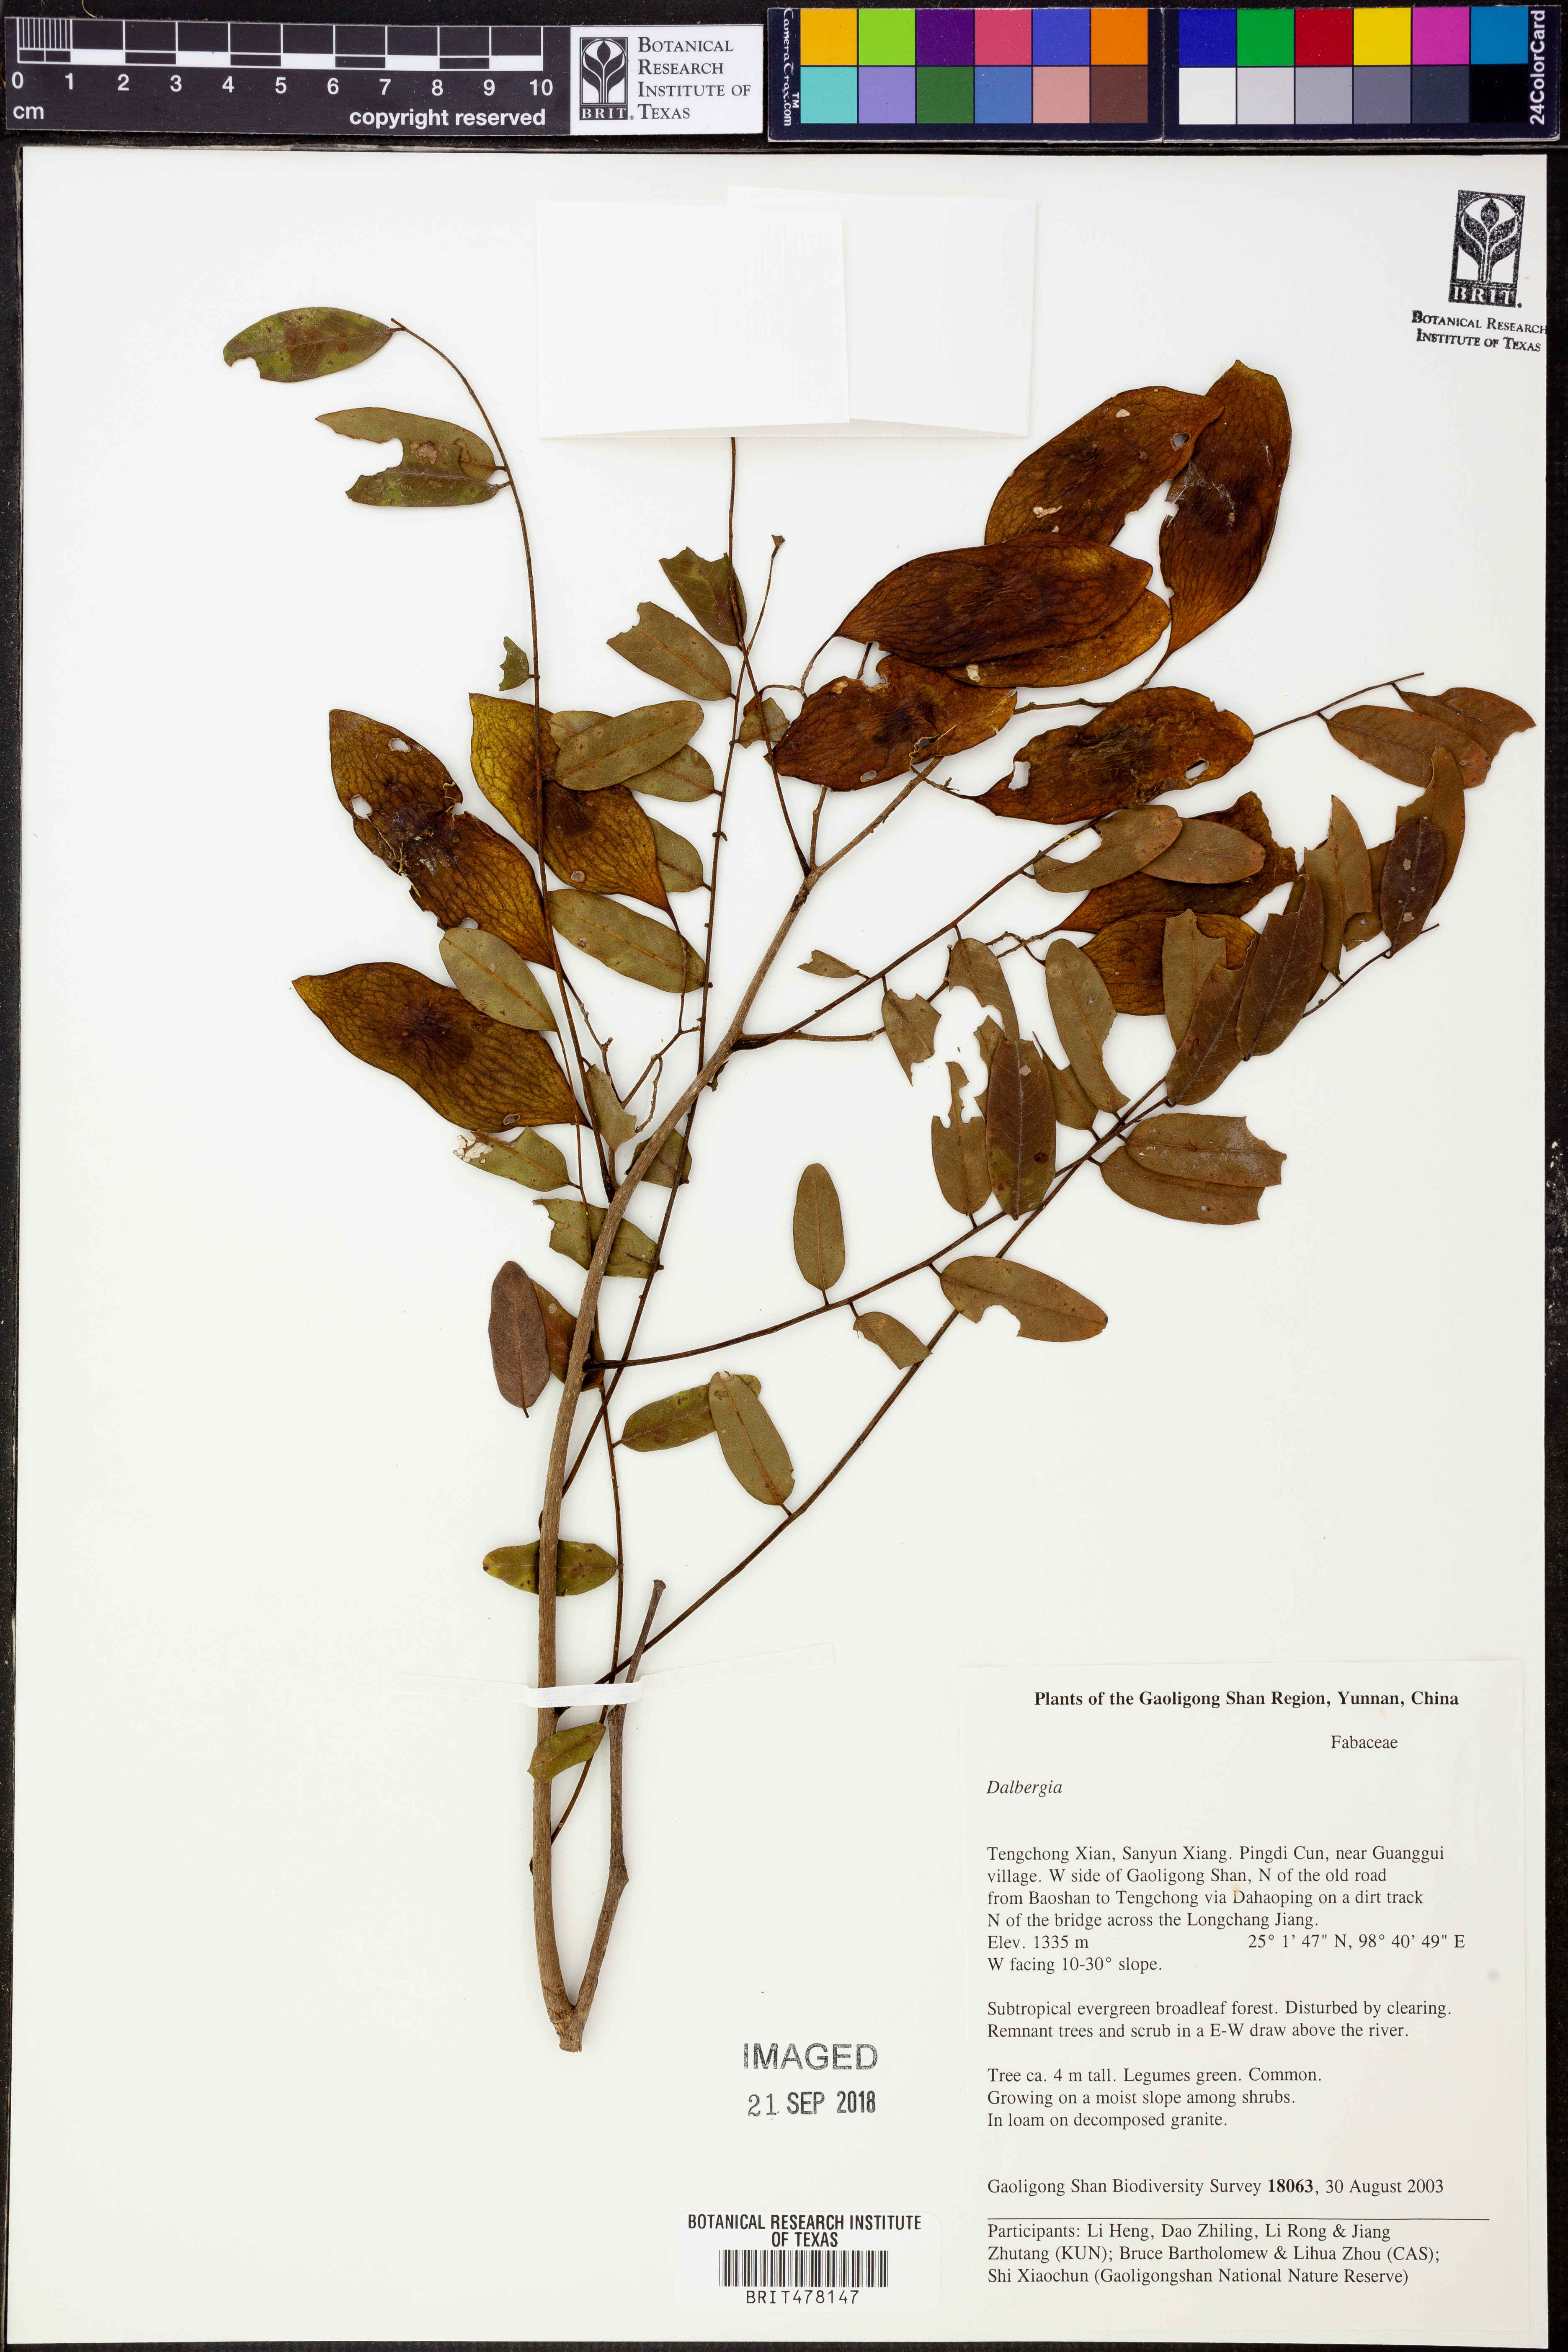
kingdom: Plantae
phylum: Tracheophyta
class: Magnoliopsida
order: Fabales
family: Fabaceae
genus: Dalbergia
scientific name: Dalbergia
